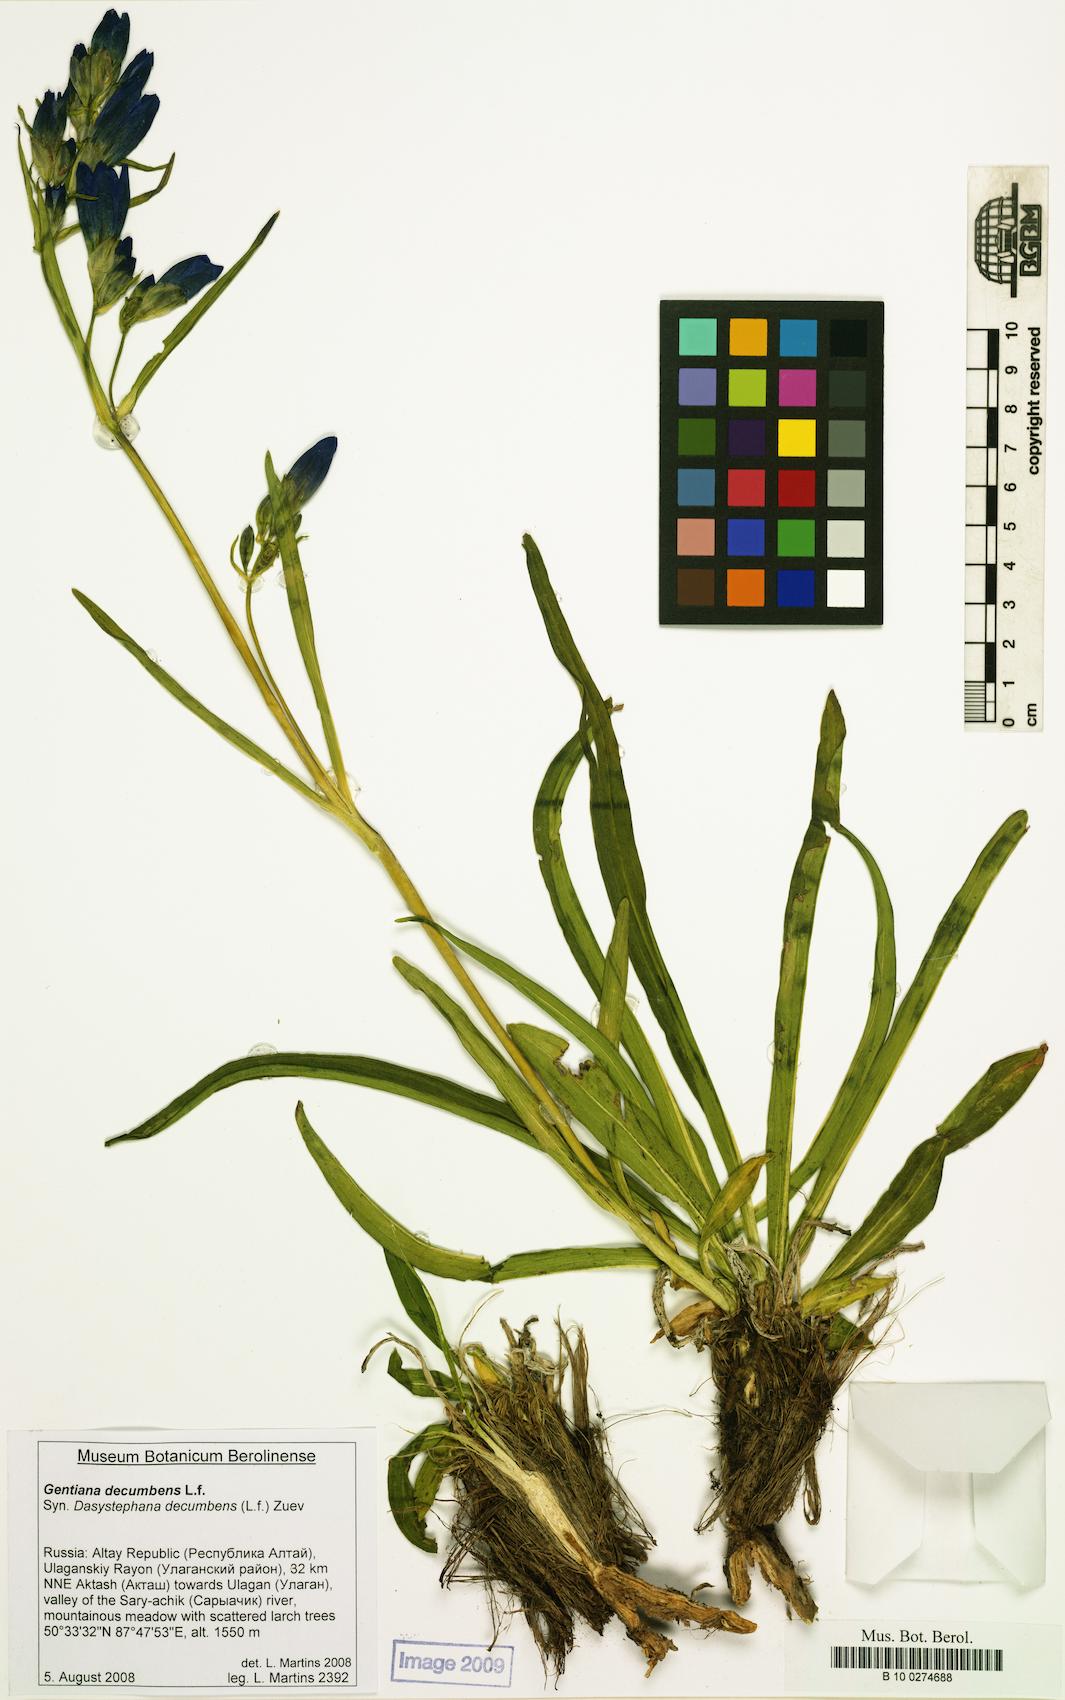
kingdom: Plantae
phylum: Tracheophyta
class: Magnoliopsida
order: Gentianales
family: Gentianaceae
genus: Gentiana
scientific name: Gentiana decumbens
